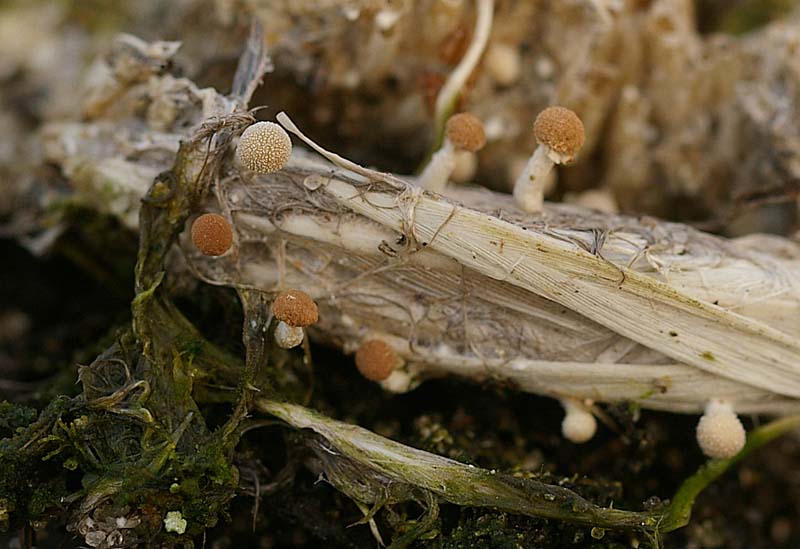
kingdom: Fungi
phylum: Ascomycota
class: Eurotiomycetes
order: Onygenales
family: Onygenaceae
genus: Onygena
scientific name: Onygena corvina
